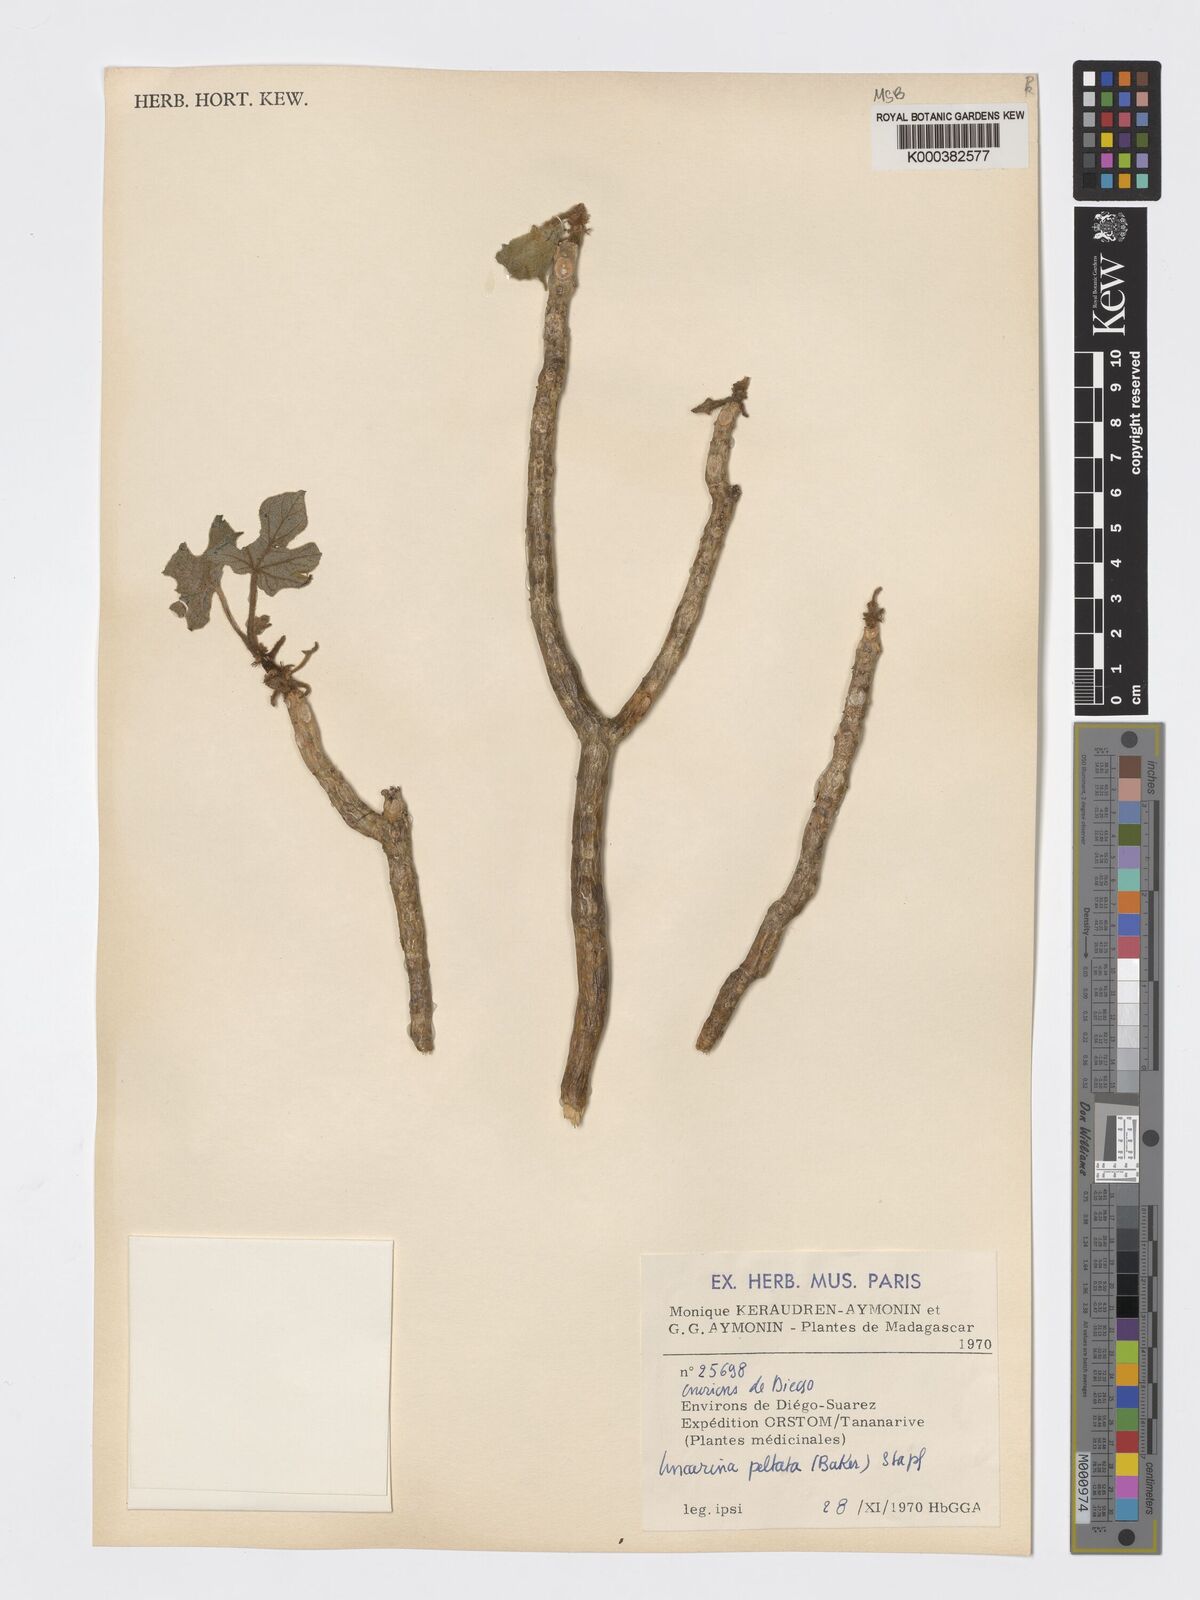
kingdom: Plantae
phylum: Tracheophyta
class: Magnoliopsida
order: Lamiales
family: Pedaliaceae
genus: Uncarina
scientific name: Uncarina peltata
